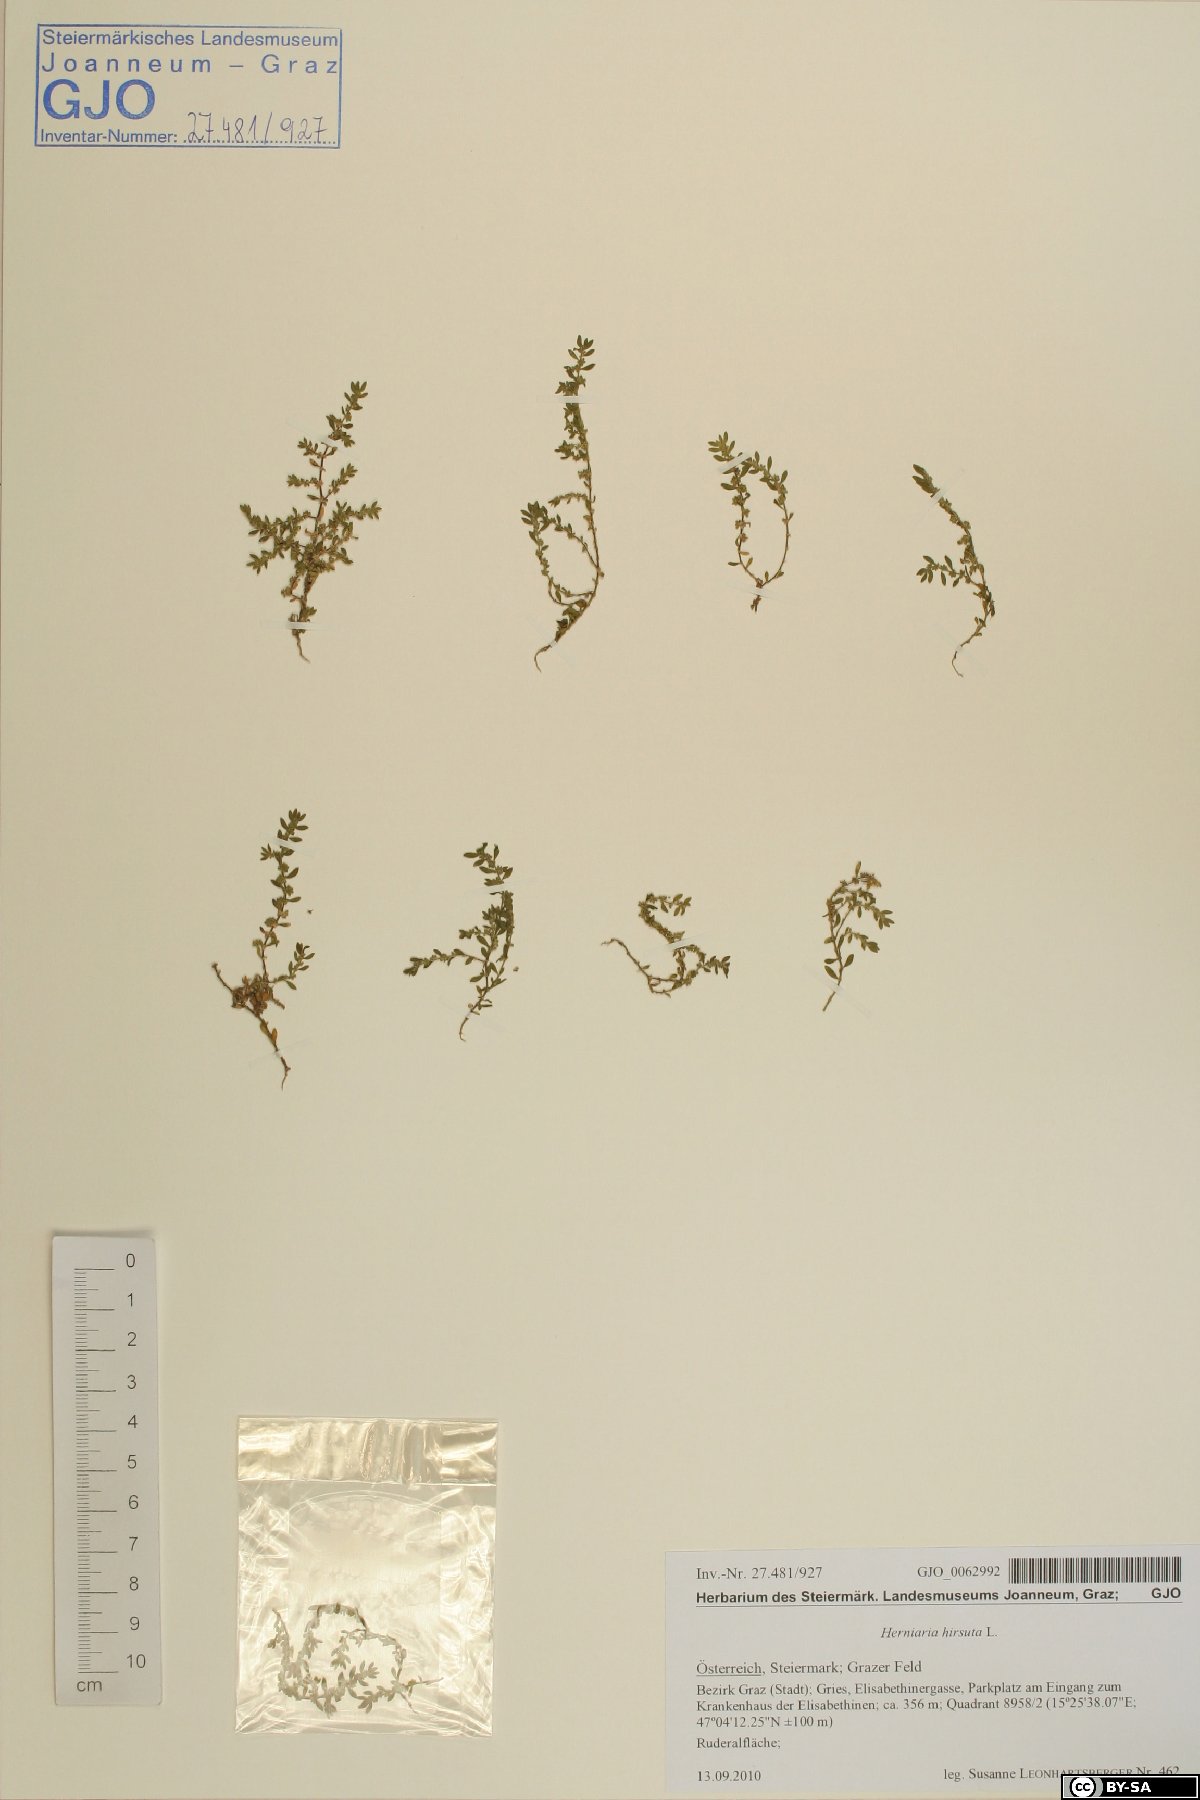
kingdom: Plantae
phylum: Tracheophyta
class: Magnoliopsida
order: Caryophyllales
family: Caryophyllaceae
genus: Herniaria
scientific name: Herniaria hirsuta
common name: Hairy rupturewort
